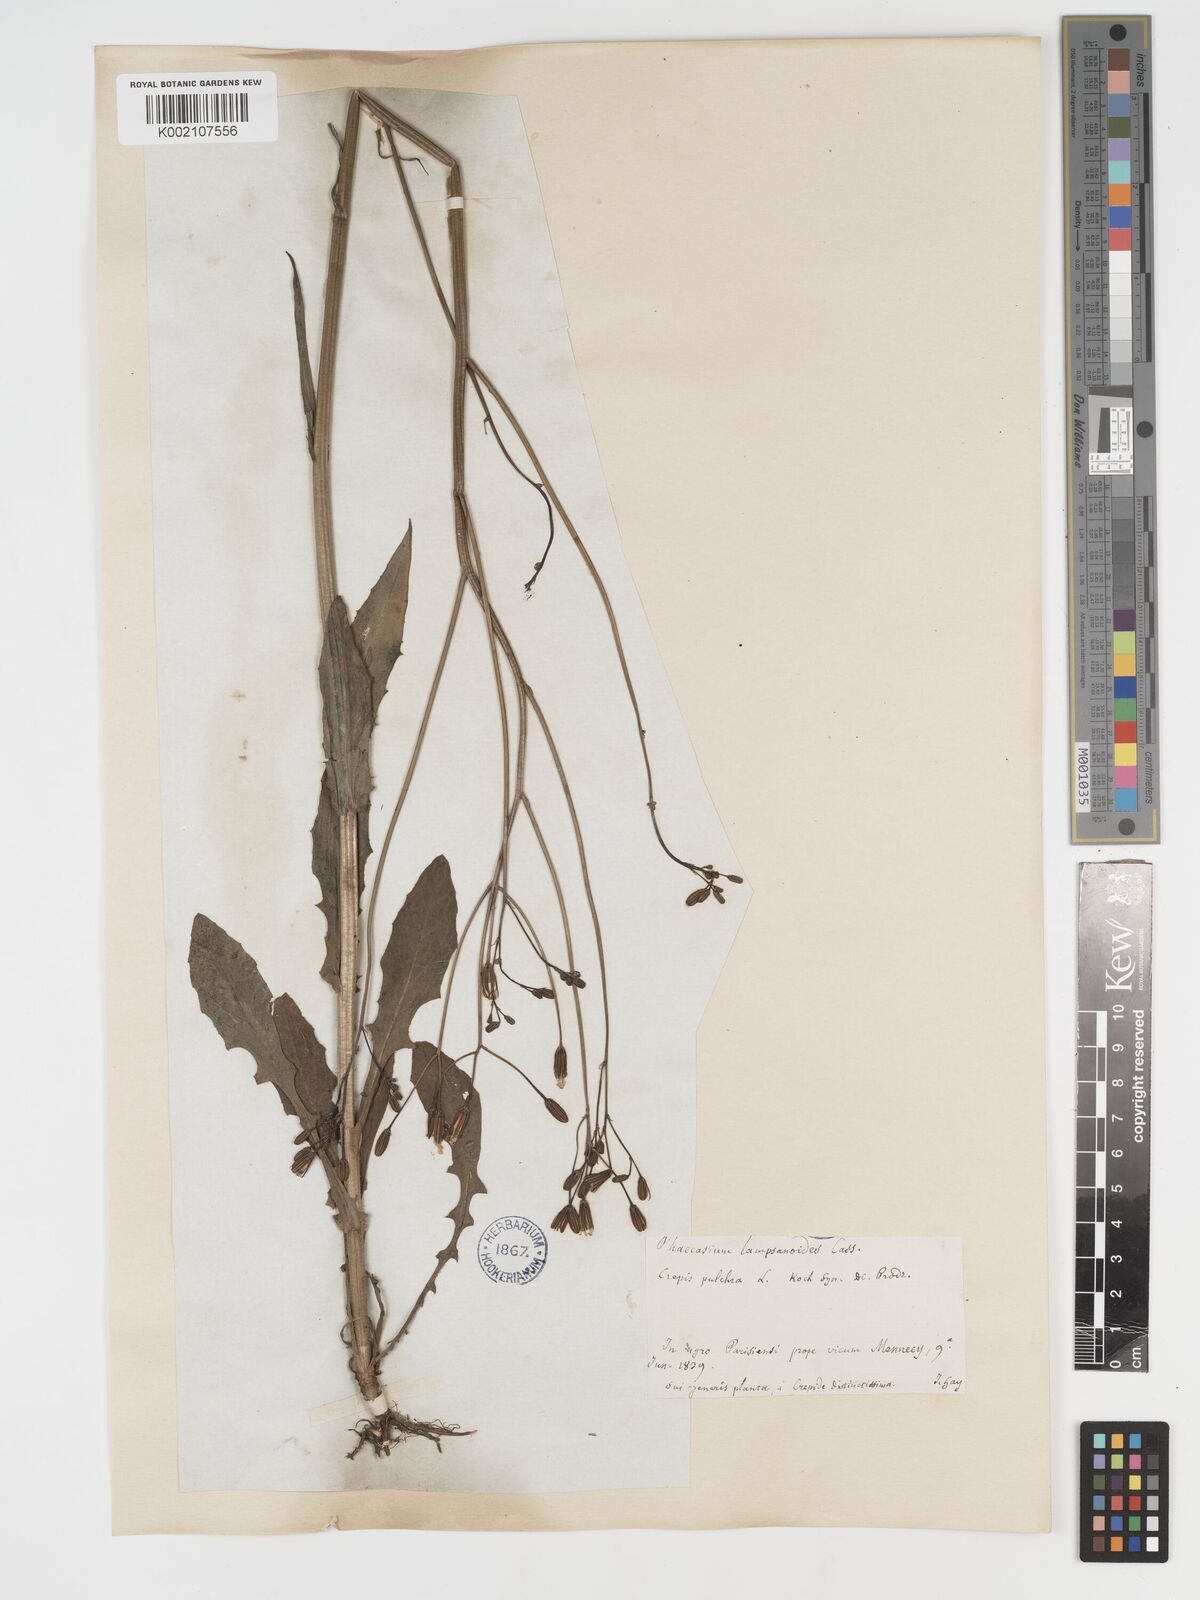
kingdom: Plantae
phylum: Tracheophyta
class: Magnoliopsida
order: Asterales
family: Asteraceae
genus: Crepis
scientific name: Crepis pulchra
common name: Hawk's-beard
